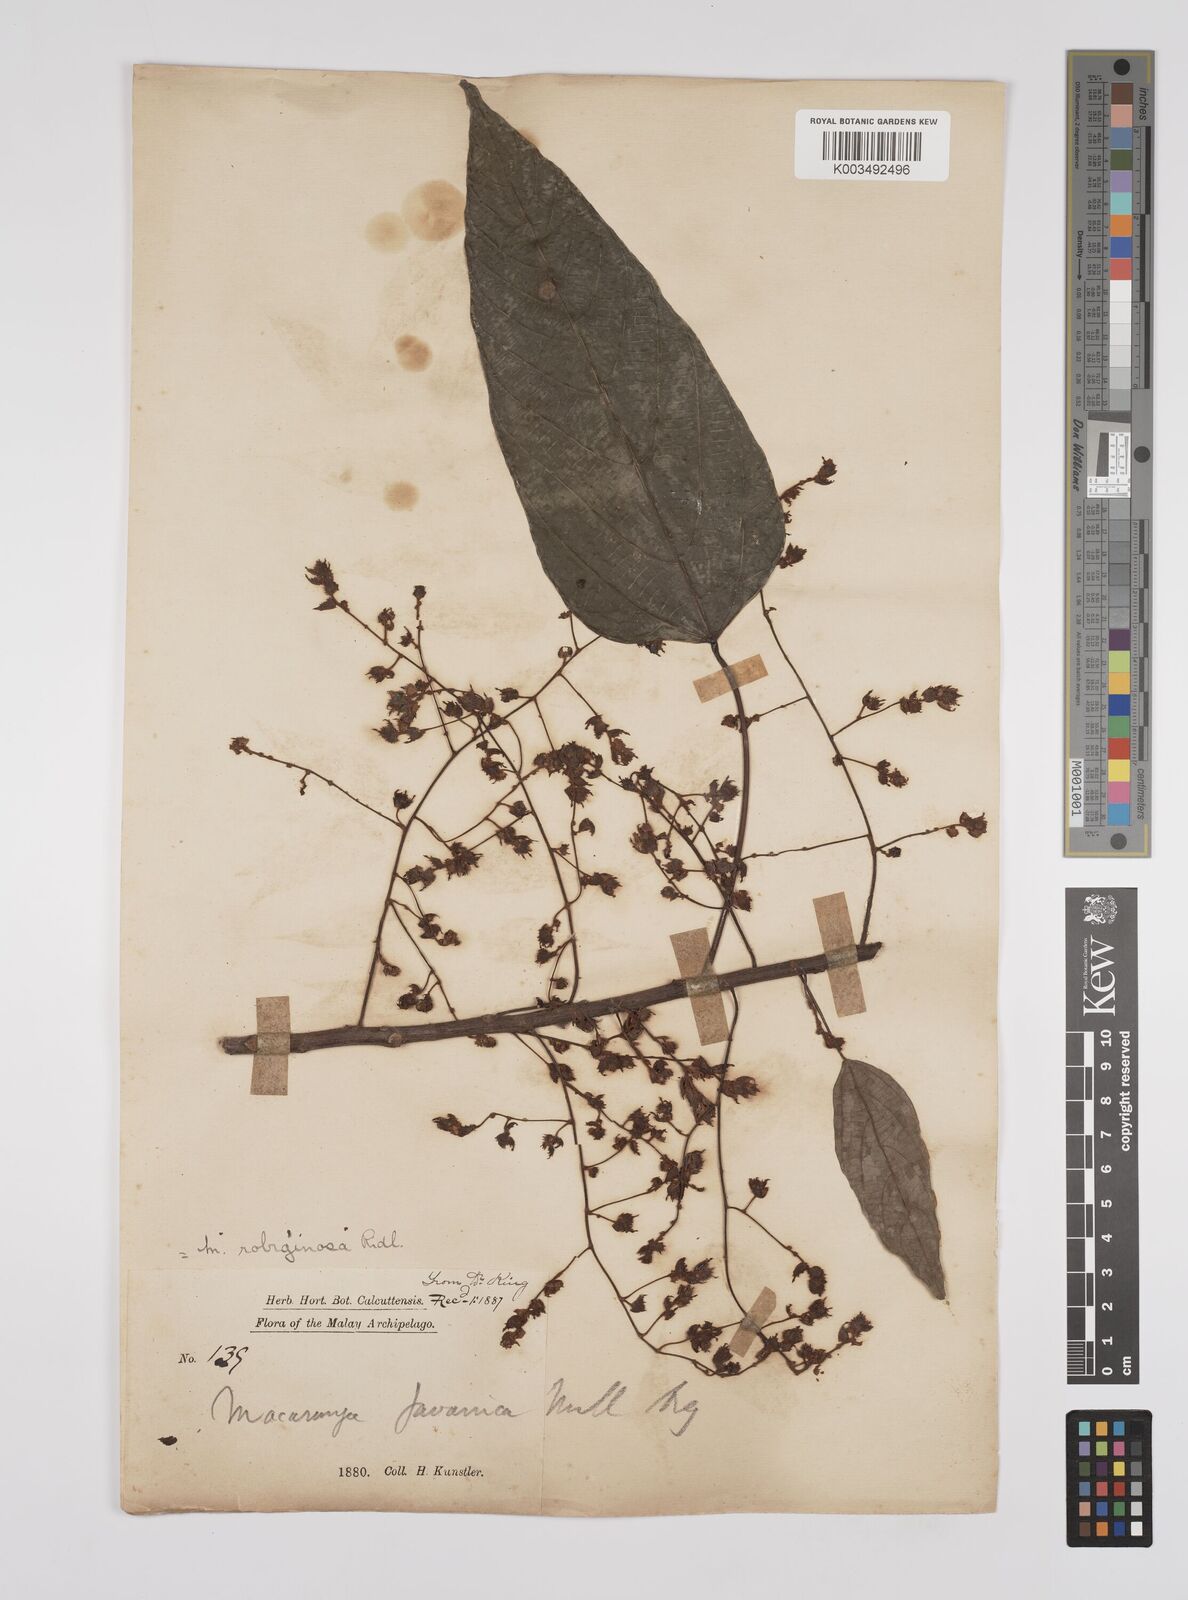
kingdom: Plantae
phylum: Tracheophyta
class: Magnoliopsida
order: Malpighiales
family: Euphorbiaceae
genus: Macaranga
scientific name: Macaranga heynei
